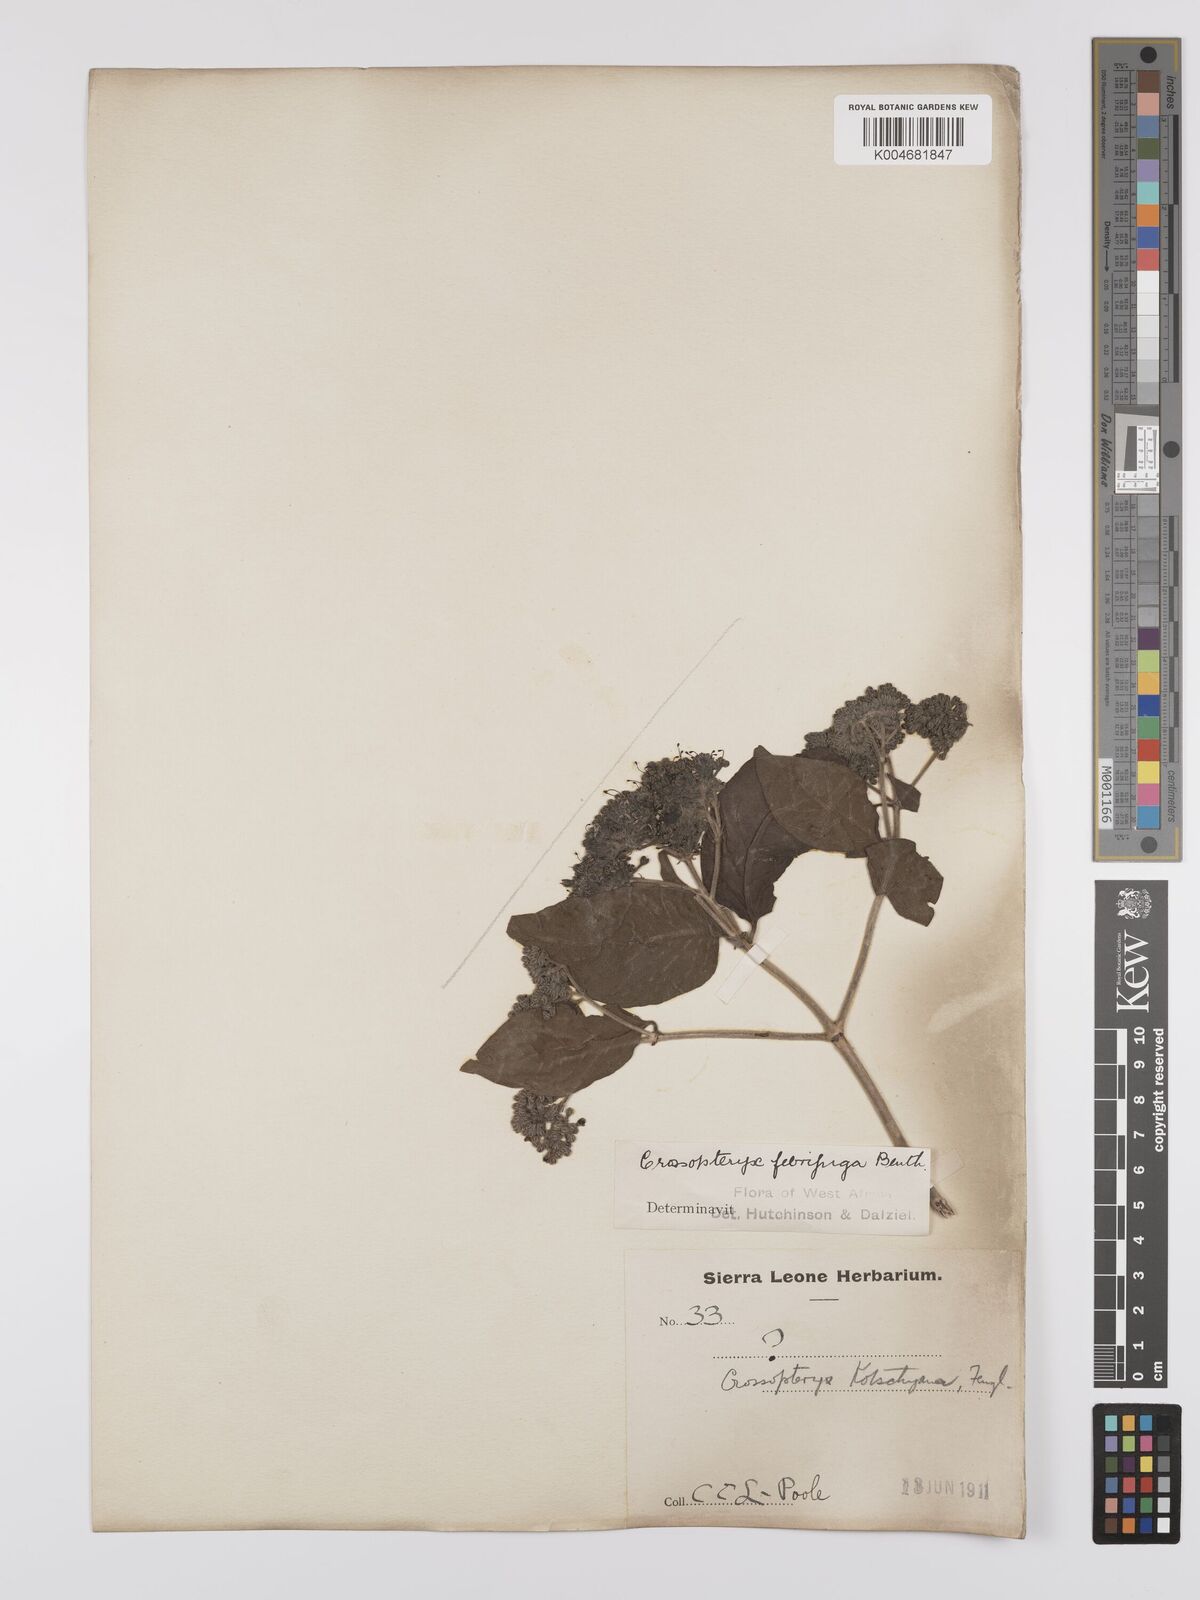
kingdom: Plantae
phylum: Tracheophyta
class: Magnoliopsida
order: Gentianales
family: Rubiaceae
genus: Crossopteryx
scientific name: Crossopteryx febrifuga
